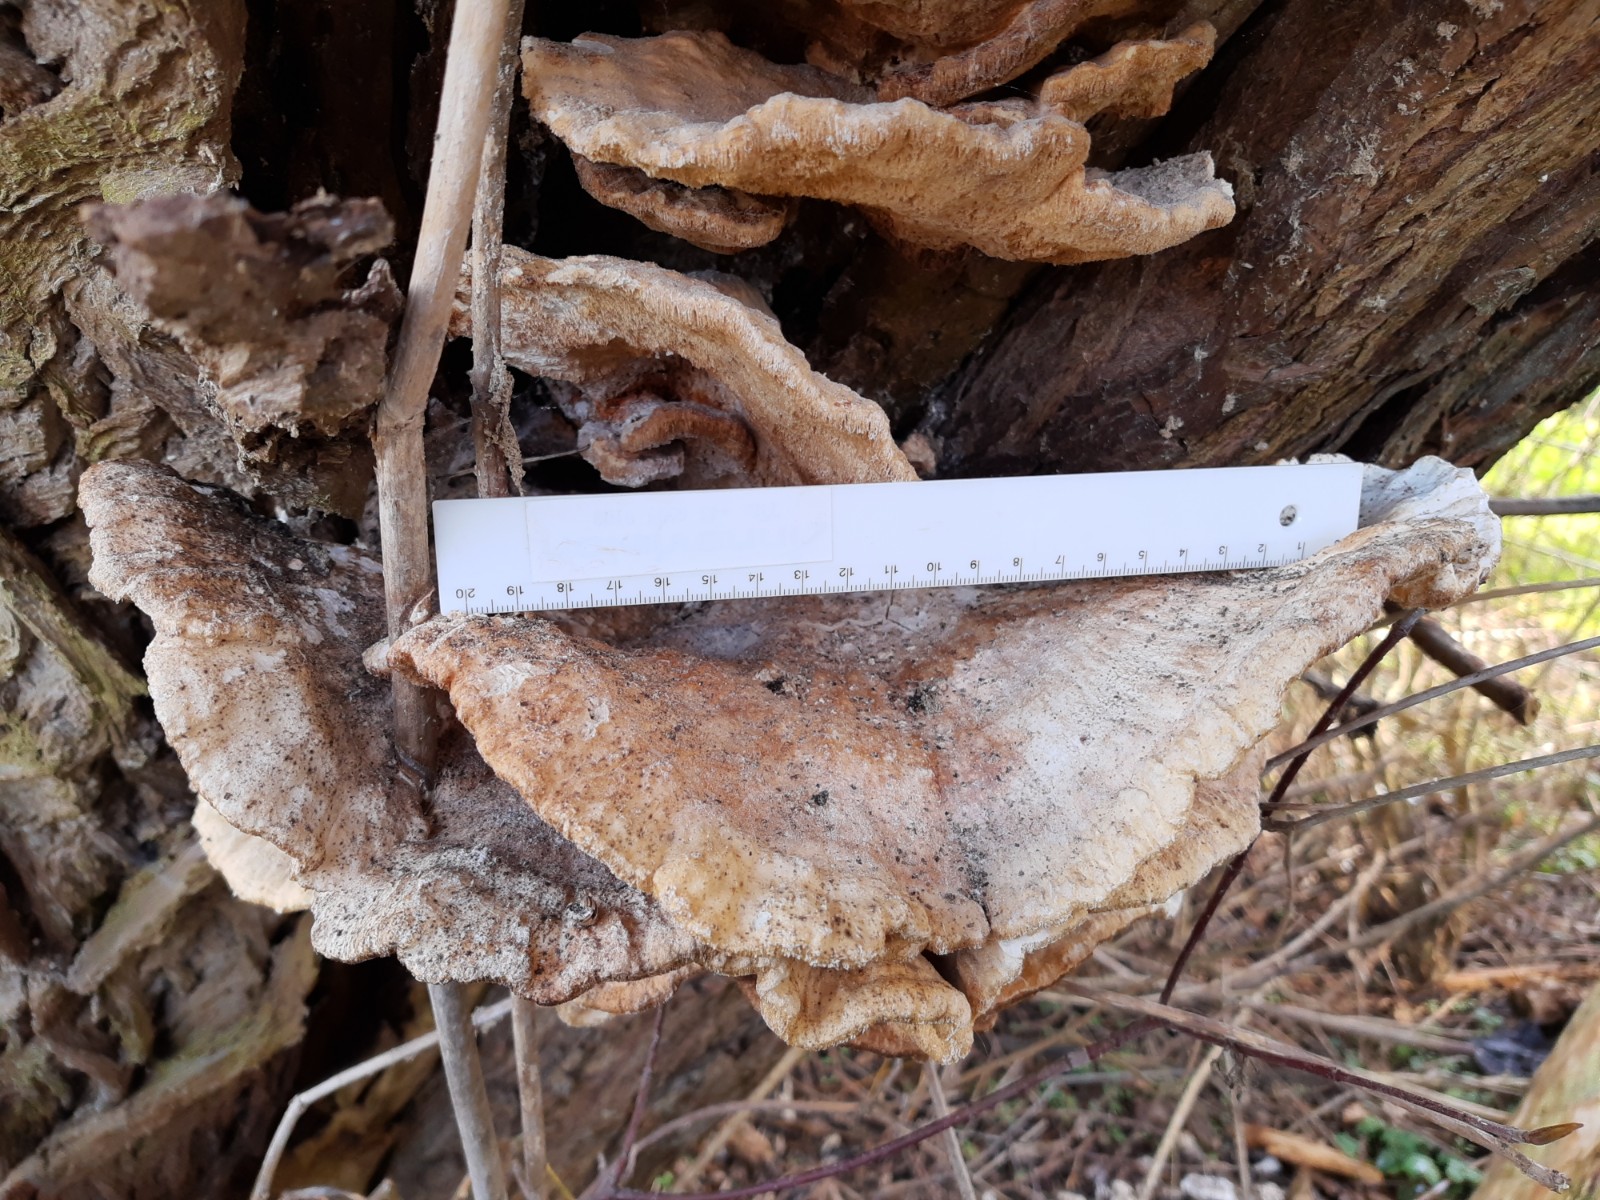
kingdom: Fungi
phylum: Basidiomycota
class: Agaricomycetes
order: Polyporales
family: Laetiporaceae
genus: Laetiporus
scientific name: Laetiporus sulphureus
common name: svovlporesvamp
